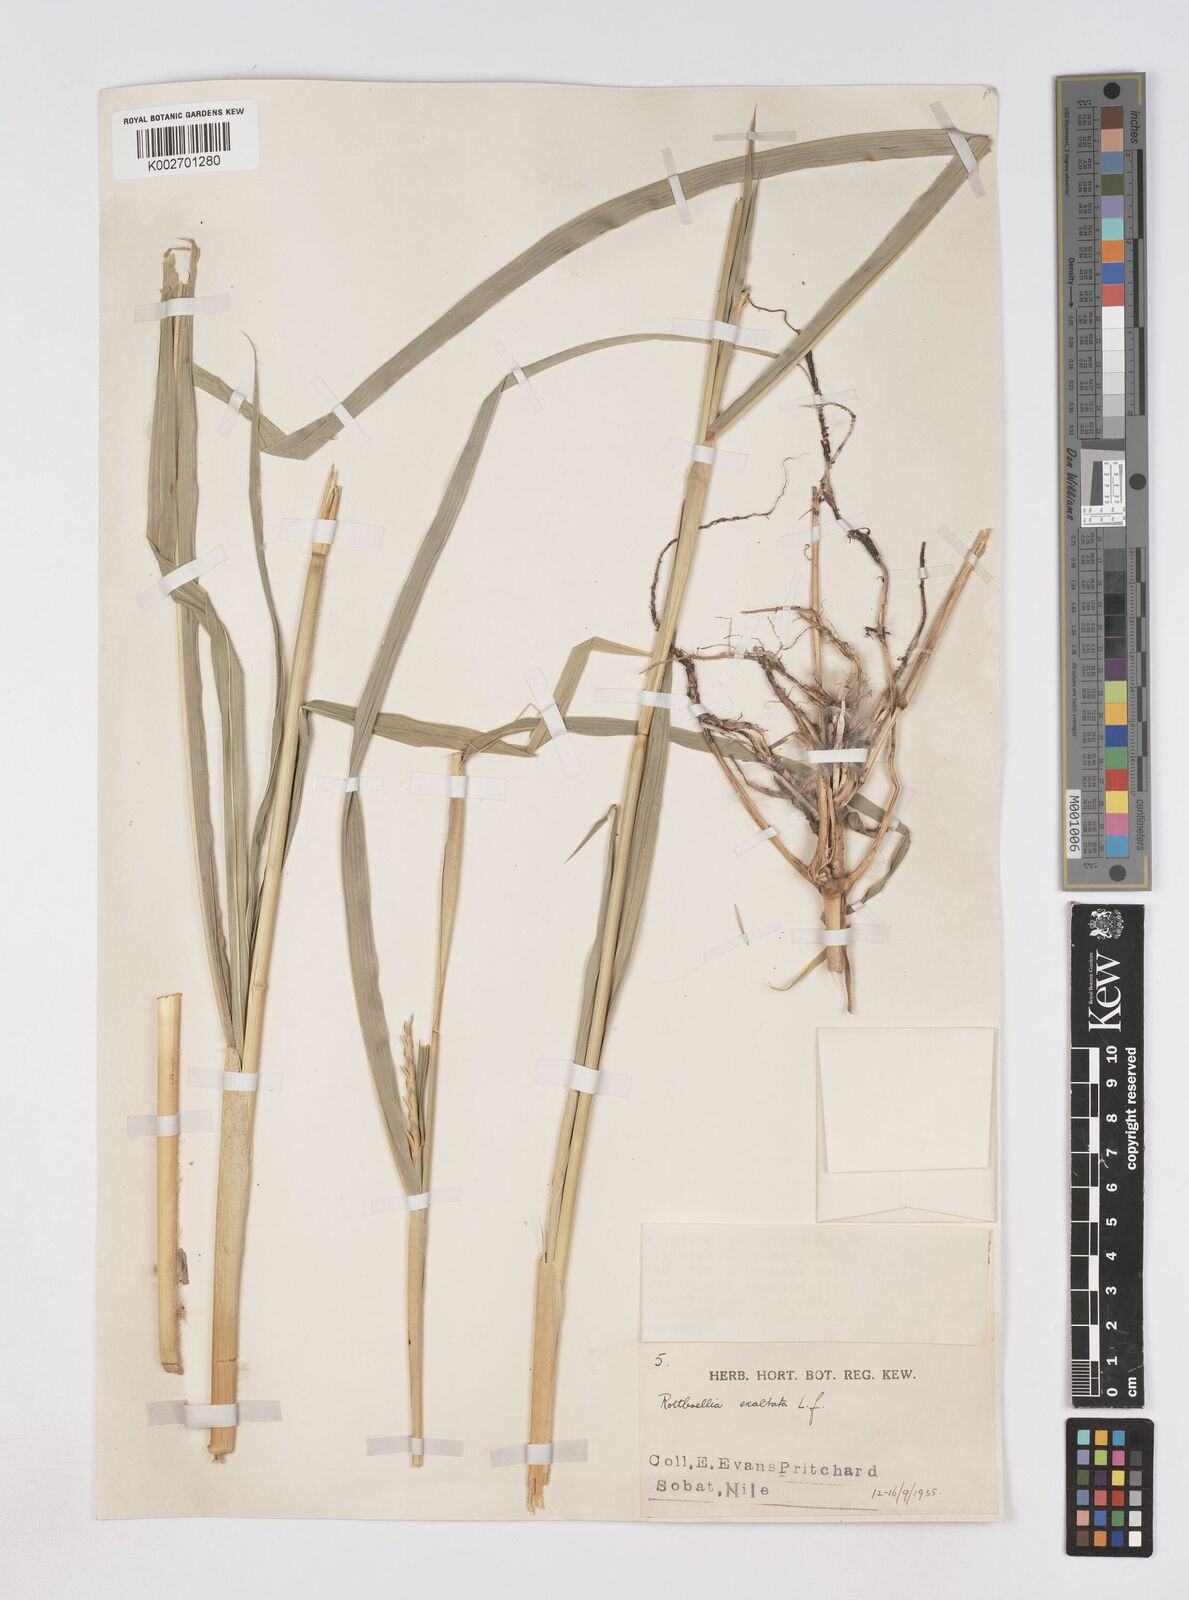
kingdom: Plantae
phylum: Tracheophyta
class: Liliopsida
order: Poales
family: Poaceae
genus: Rottboellia
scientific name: Rottboellia cochinchinensis
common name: Itchgrass
